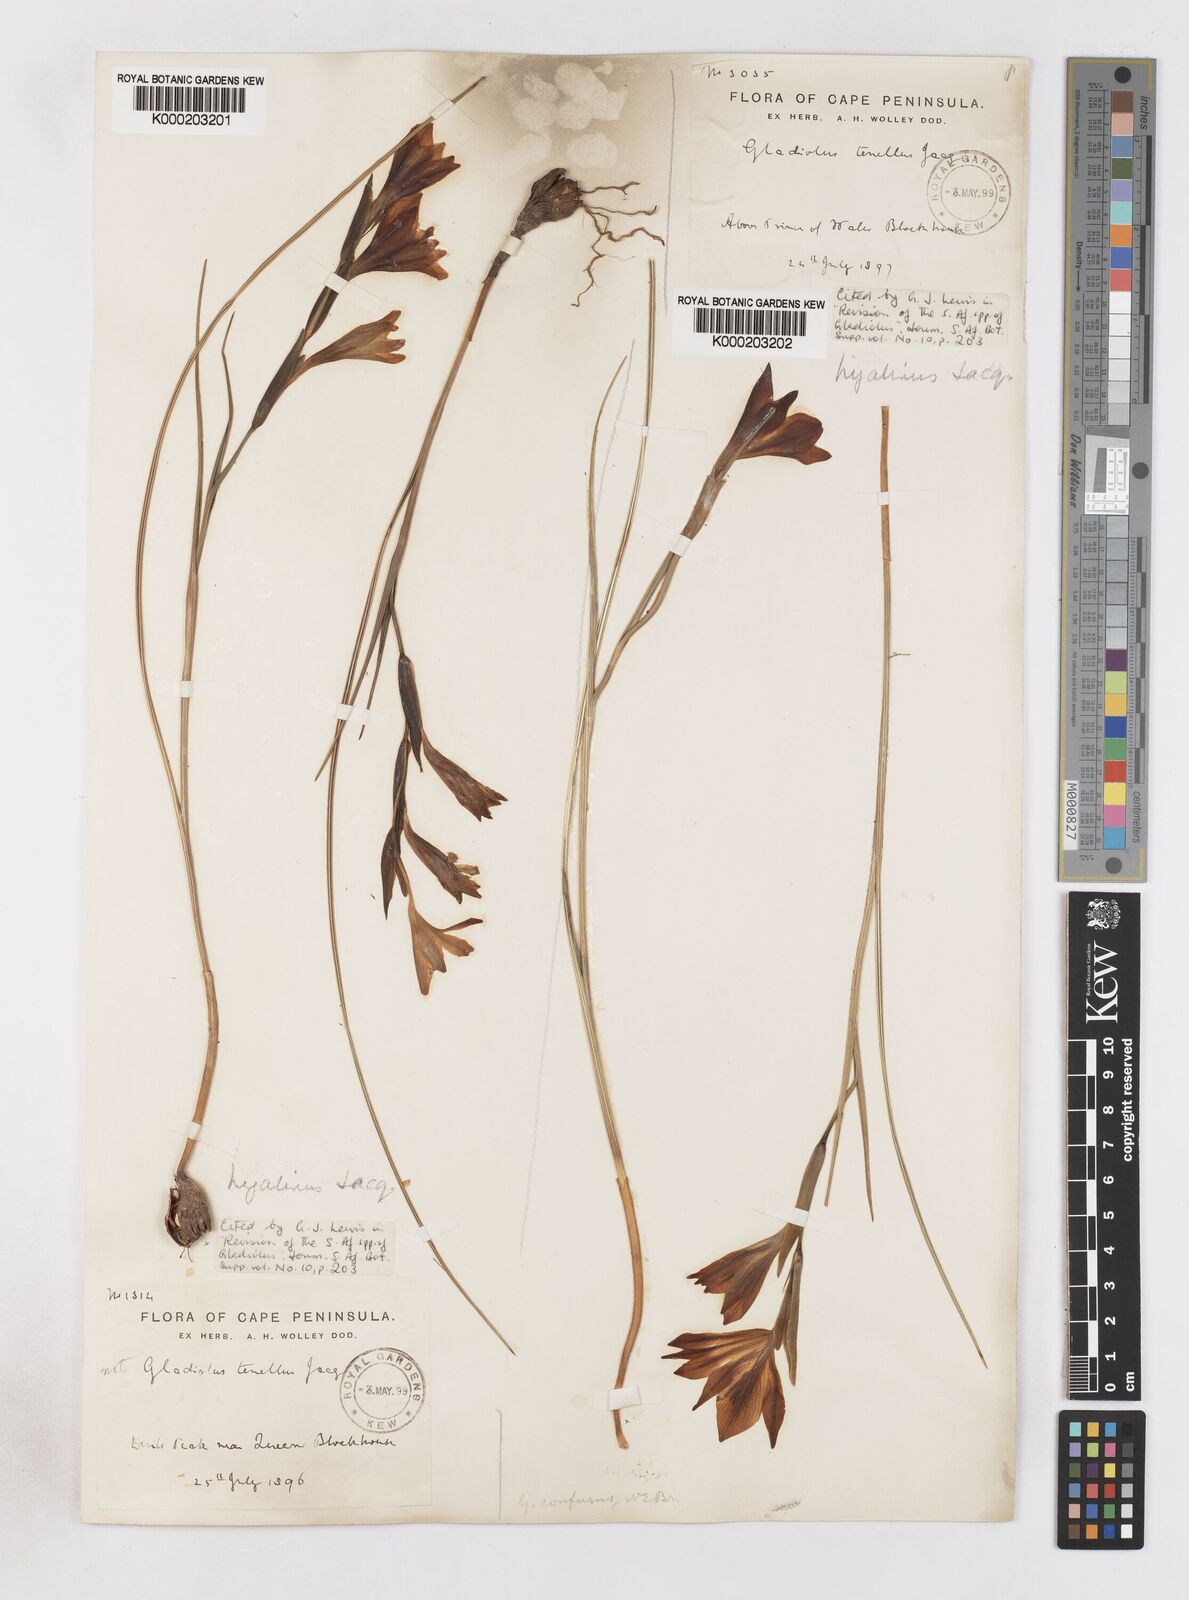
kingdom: Plantae
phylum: Tracheophyta
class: Liliopsida
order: Asparagales
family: Iridaceae
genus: Gladiolus
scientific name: Gladiolus hyalinus
